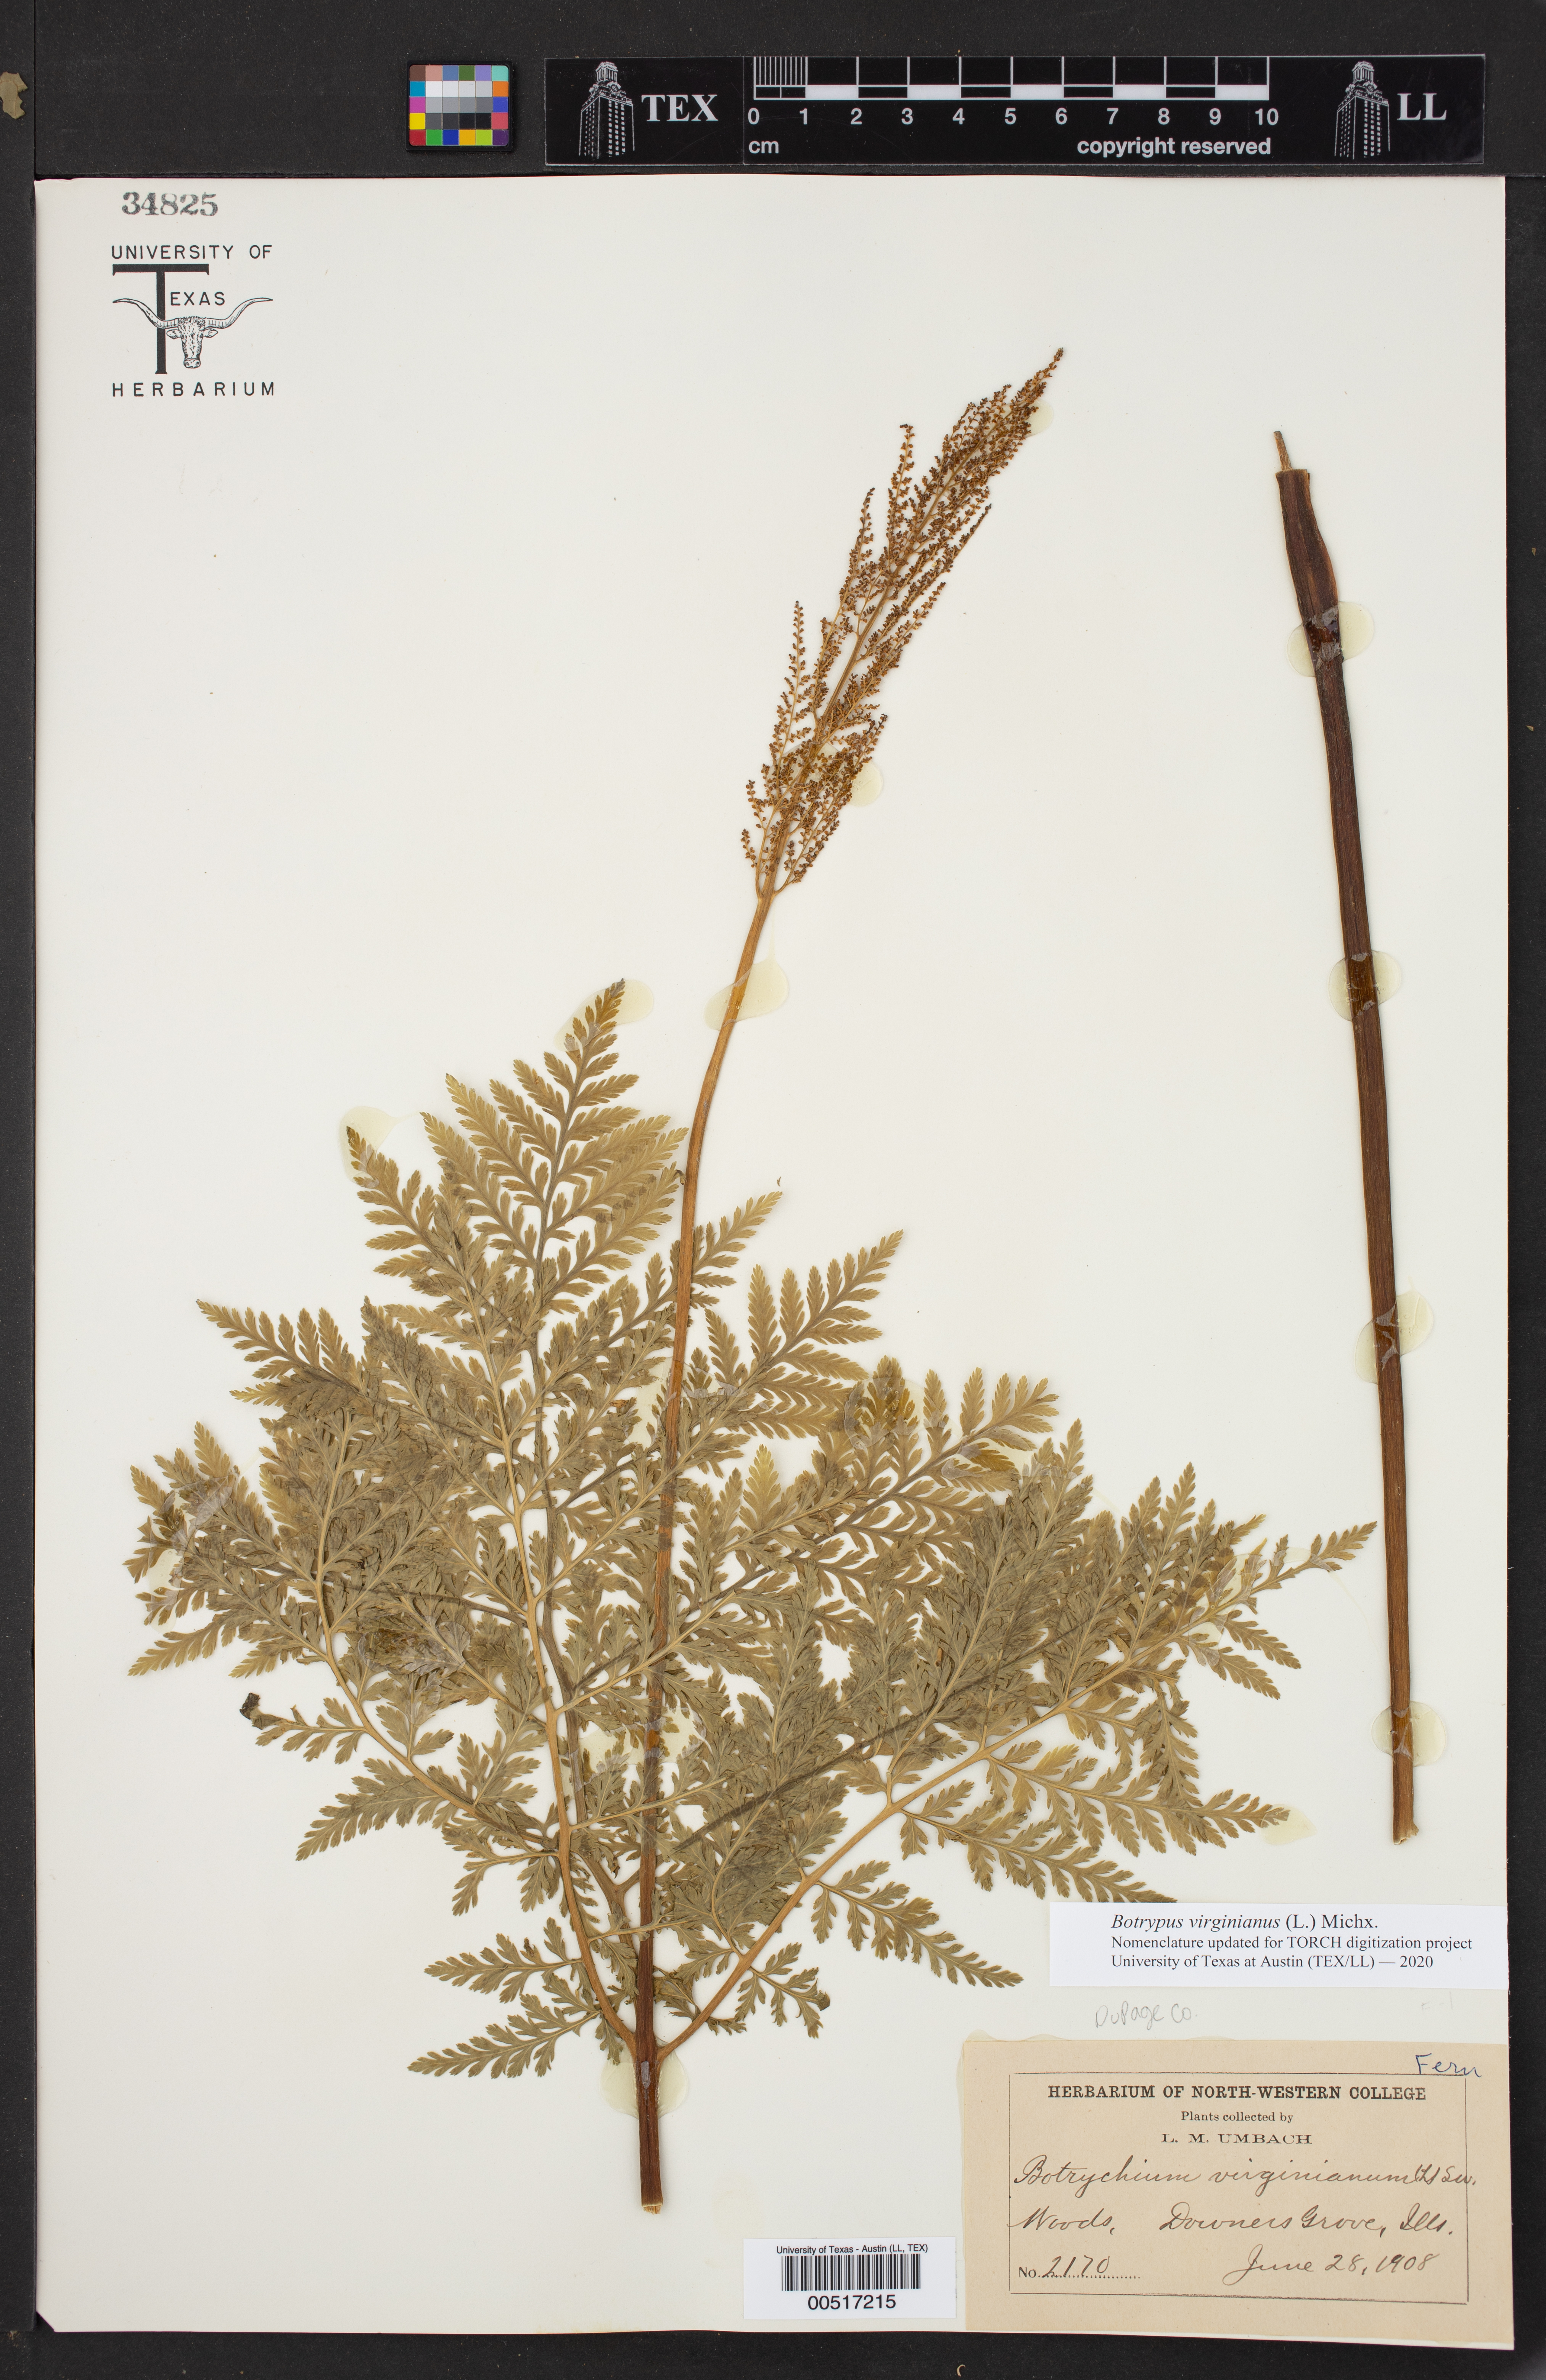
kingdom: Plantae
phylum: Tracheophyta
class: Polypodiopsida
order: Ophioglossales
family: Ophioglossaceae
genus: Botrypus
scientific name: Botrypus virginianus
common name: Common grapefern
